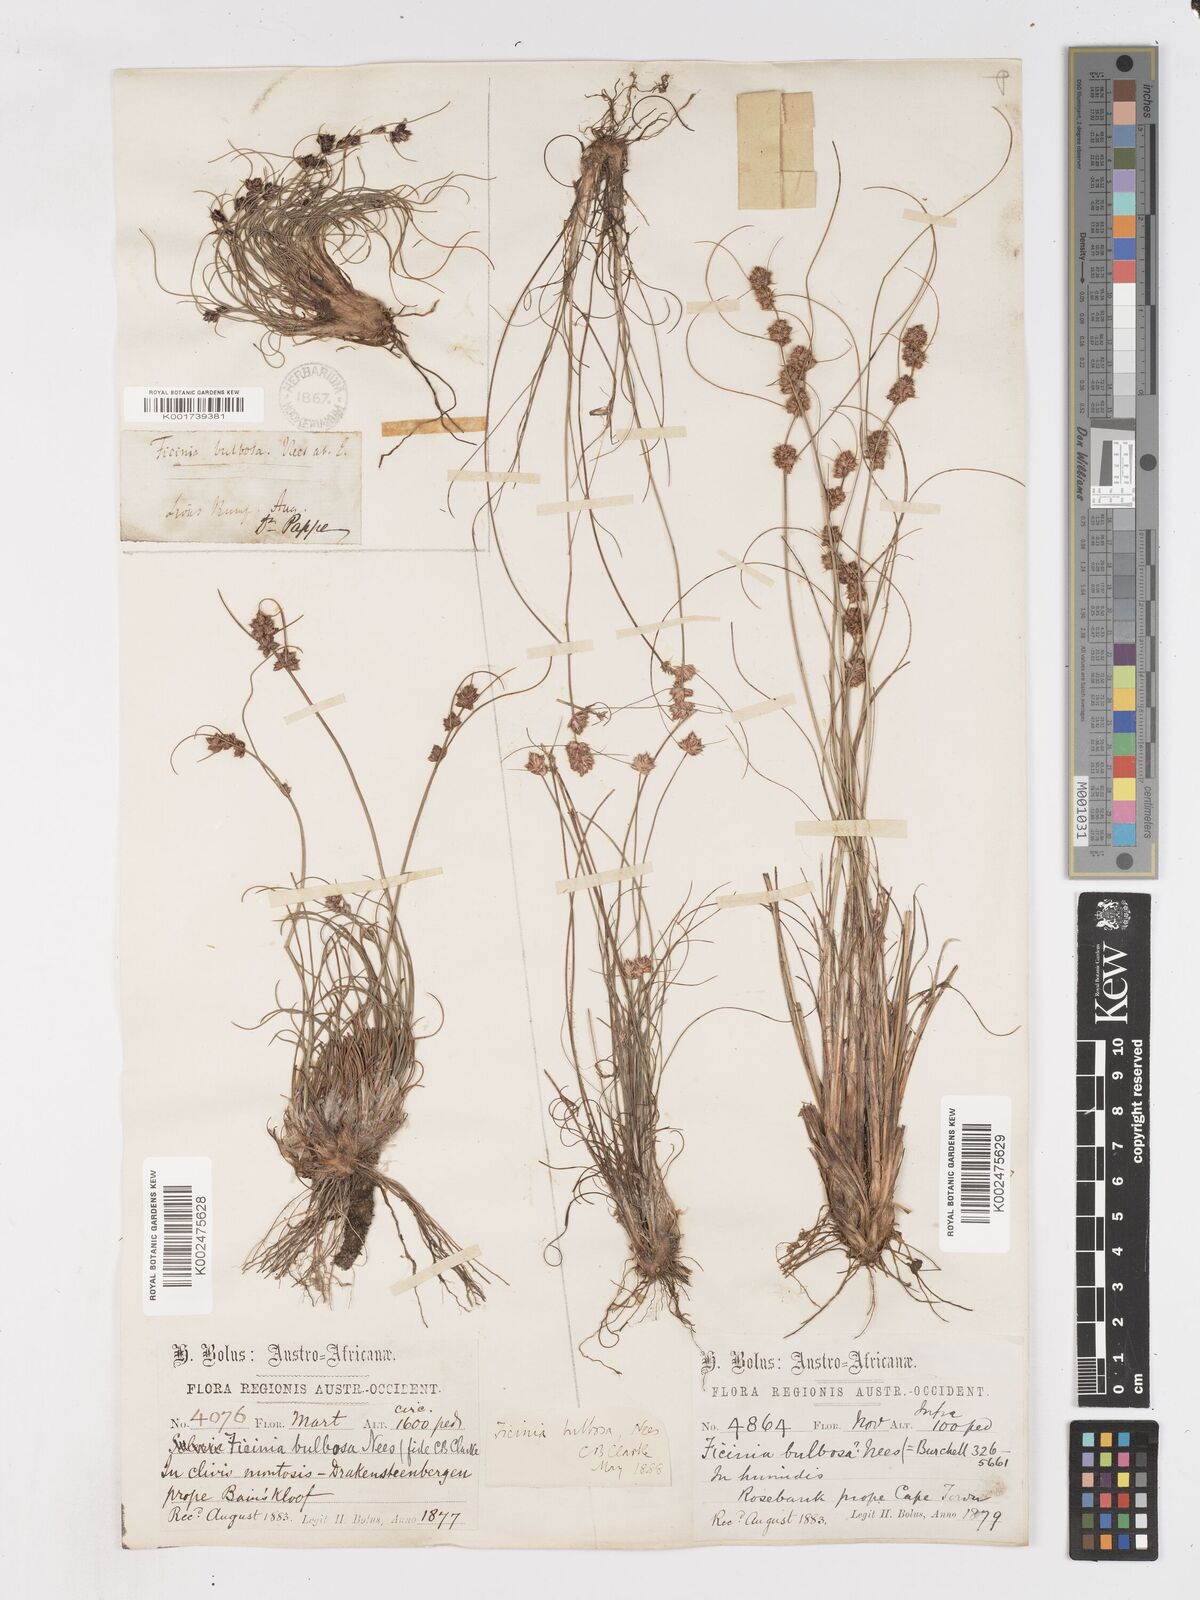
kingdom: Plantae
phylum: Tracheophyta
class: Liliopsida
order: Poales
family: Cyperaceae
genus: Ficinia
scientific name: Ficinia bulbosa
